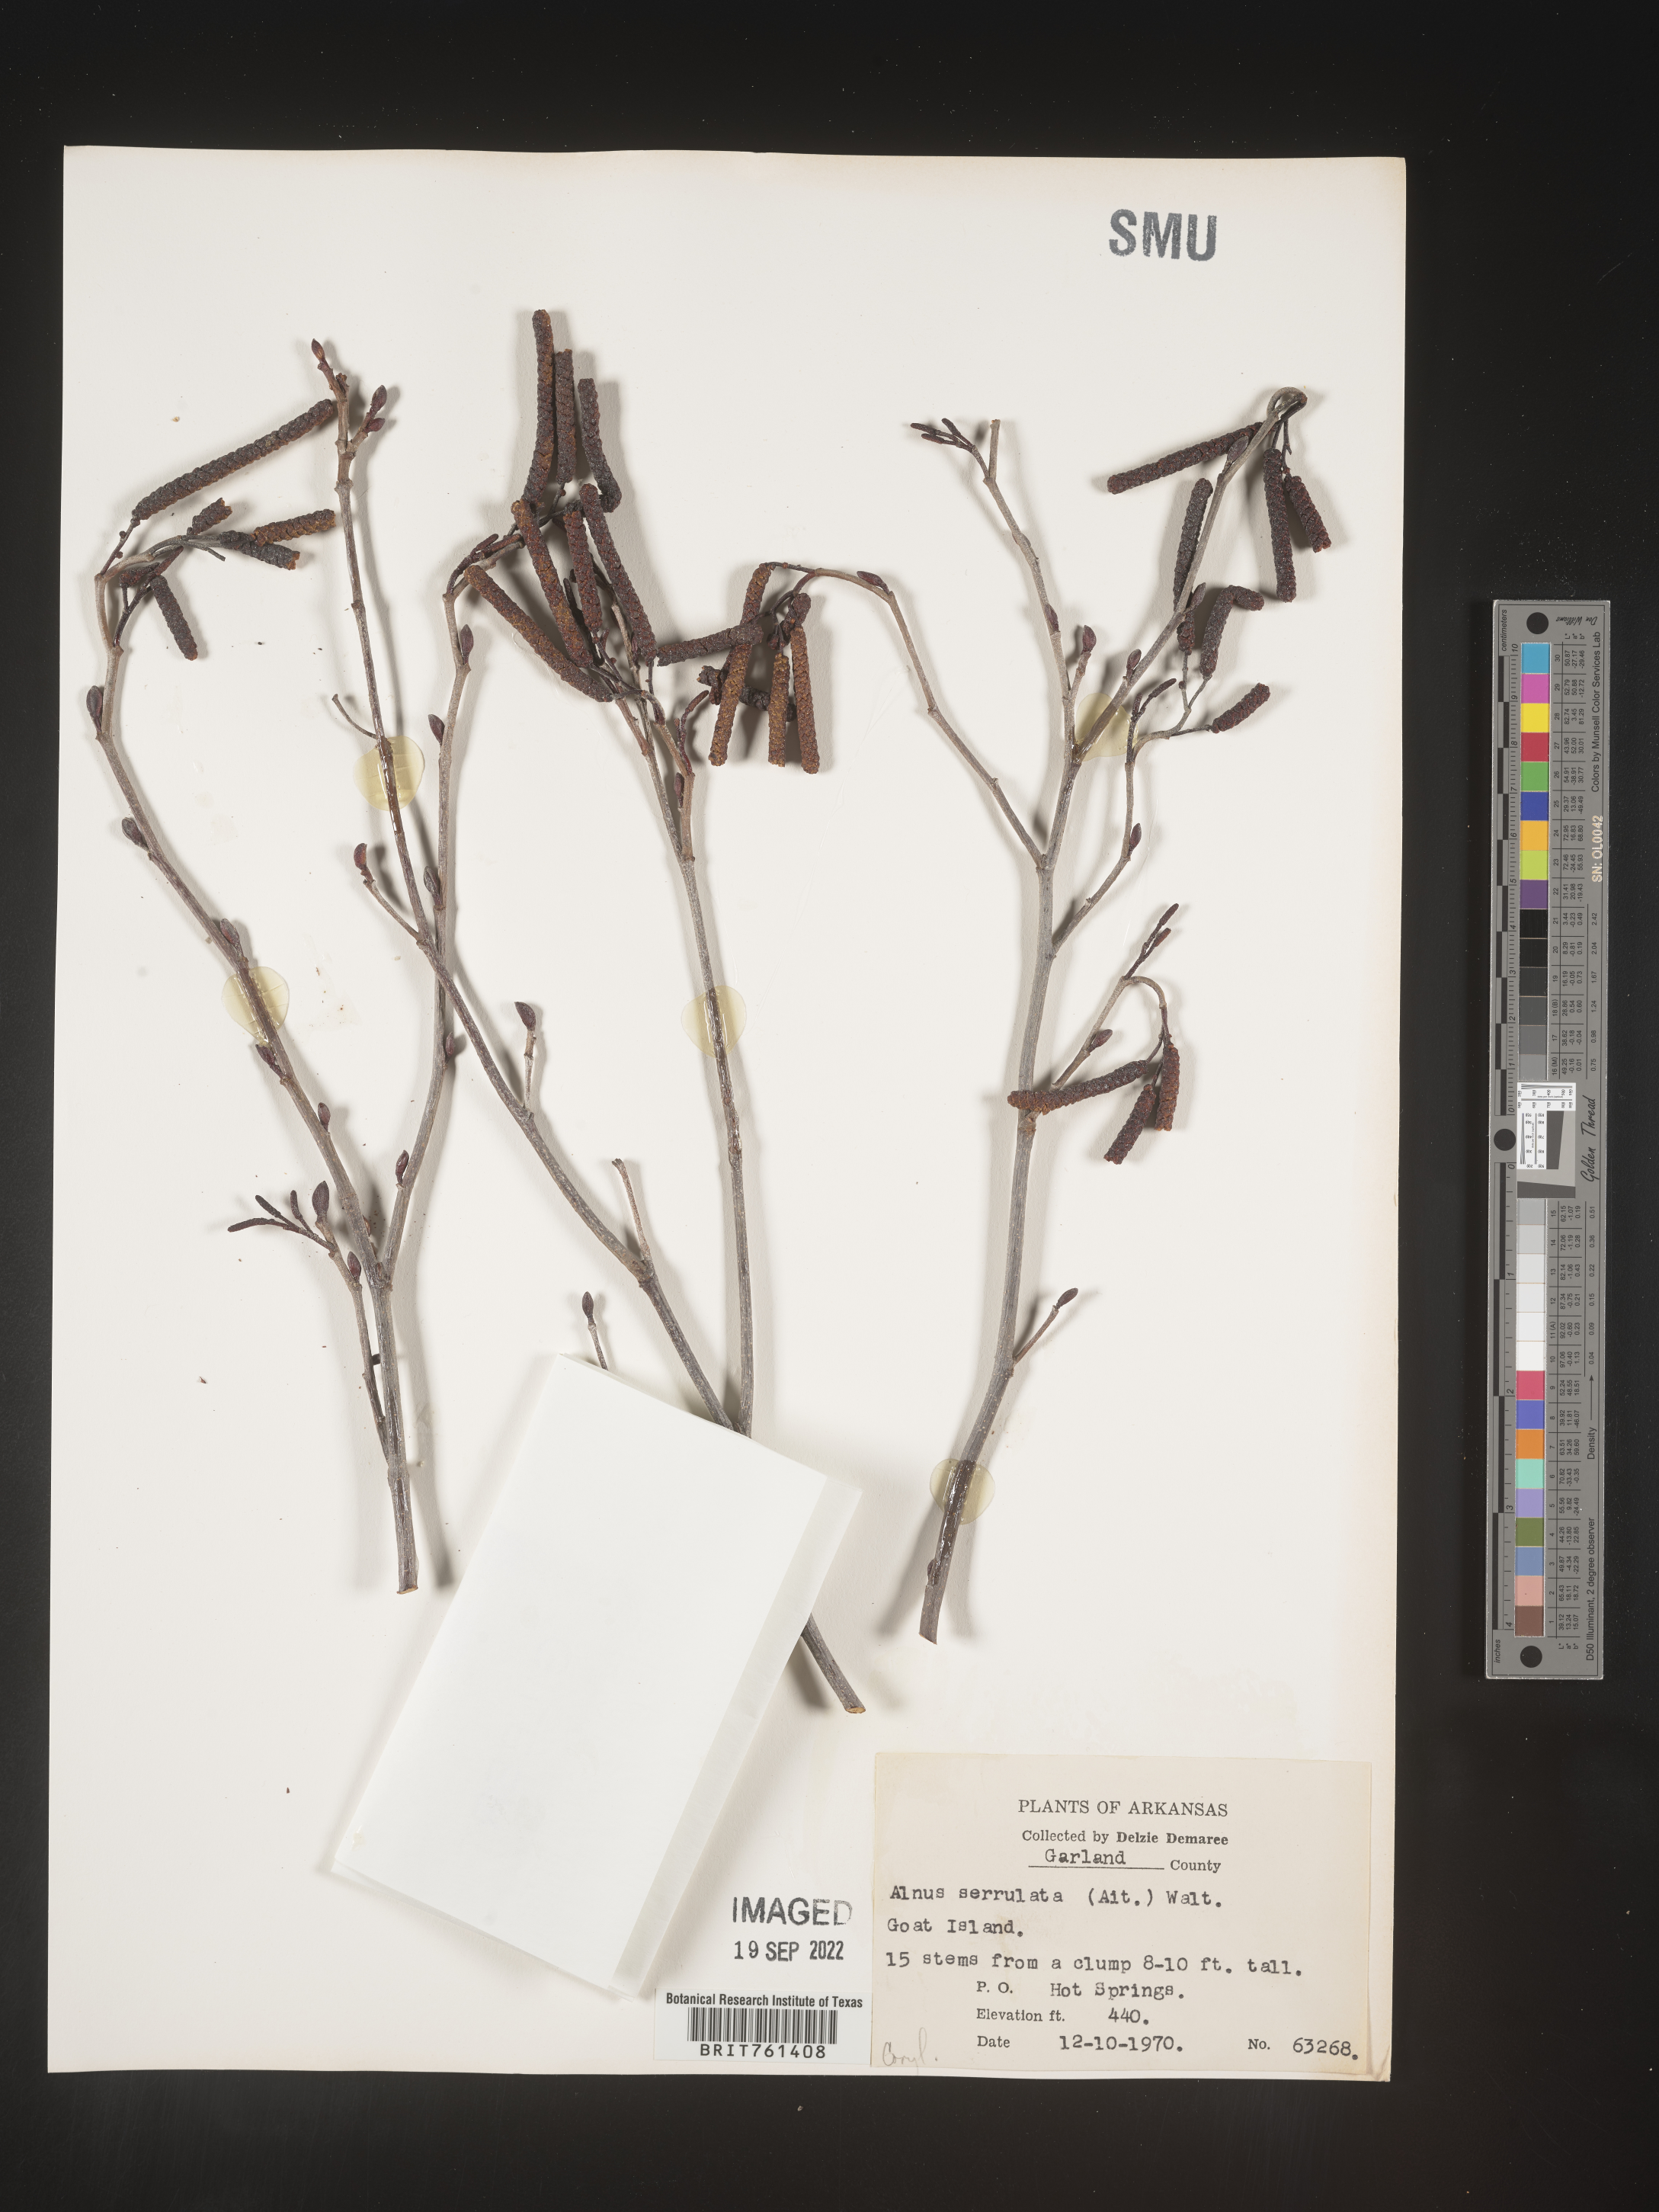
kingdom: Plantae
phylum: Tracheophyta
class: Magnoliopsida
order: Fagales
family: Betulaceae
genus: Alnus
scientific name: Alnus serrulata
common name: Hazel alder
